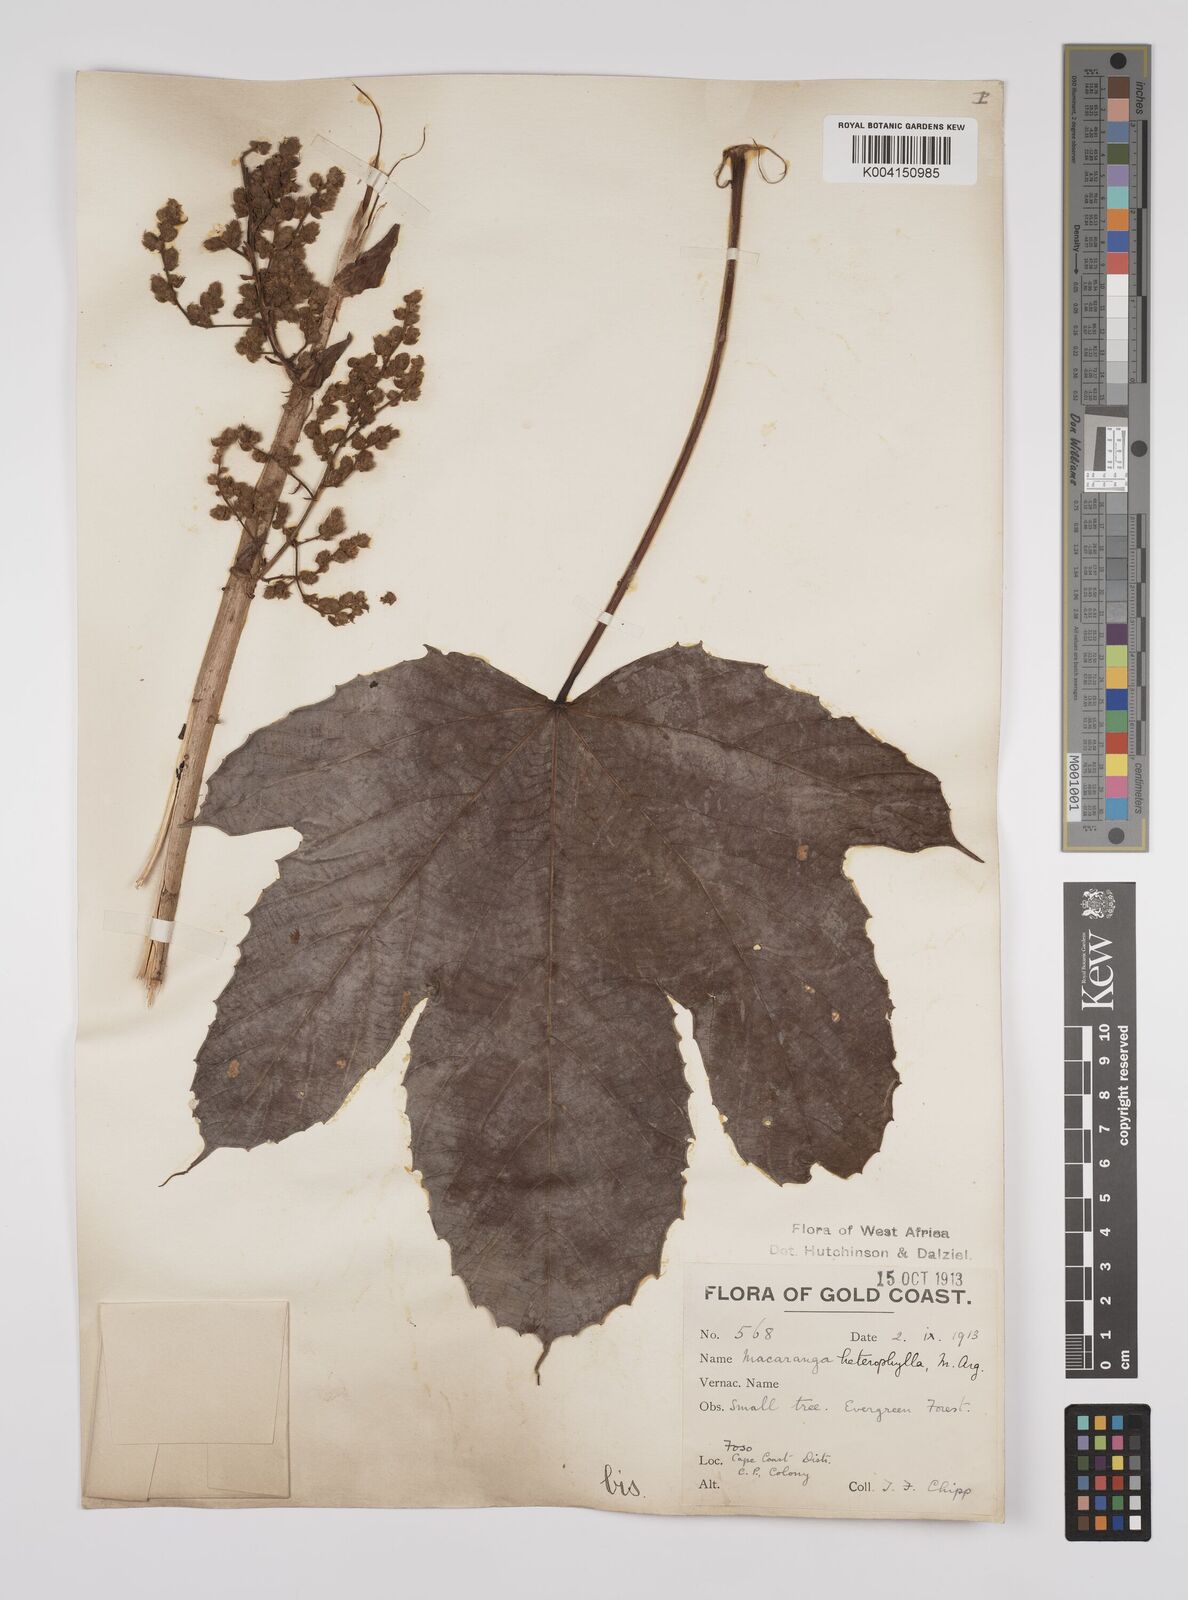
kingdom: Plantae
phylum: Tracheophyta
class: Magnoliopsida
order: Malpighiales
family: Euphorbiaceae
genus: Macaranga
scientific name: Macaranga heterophylla
